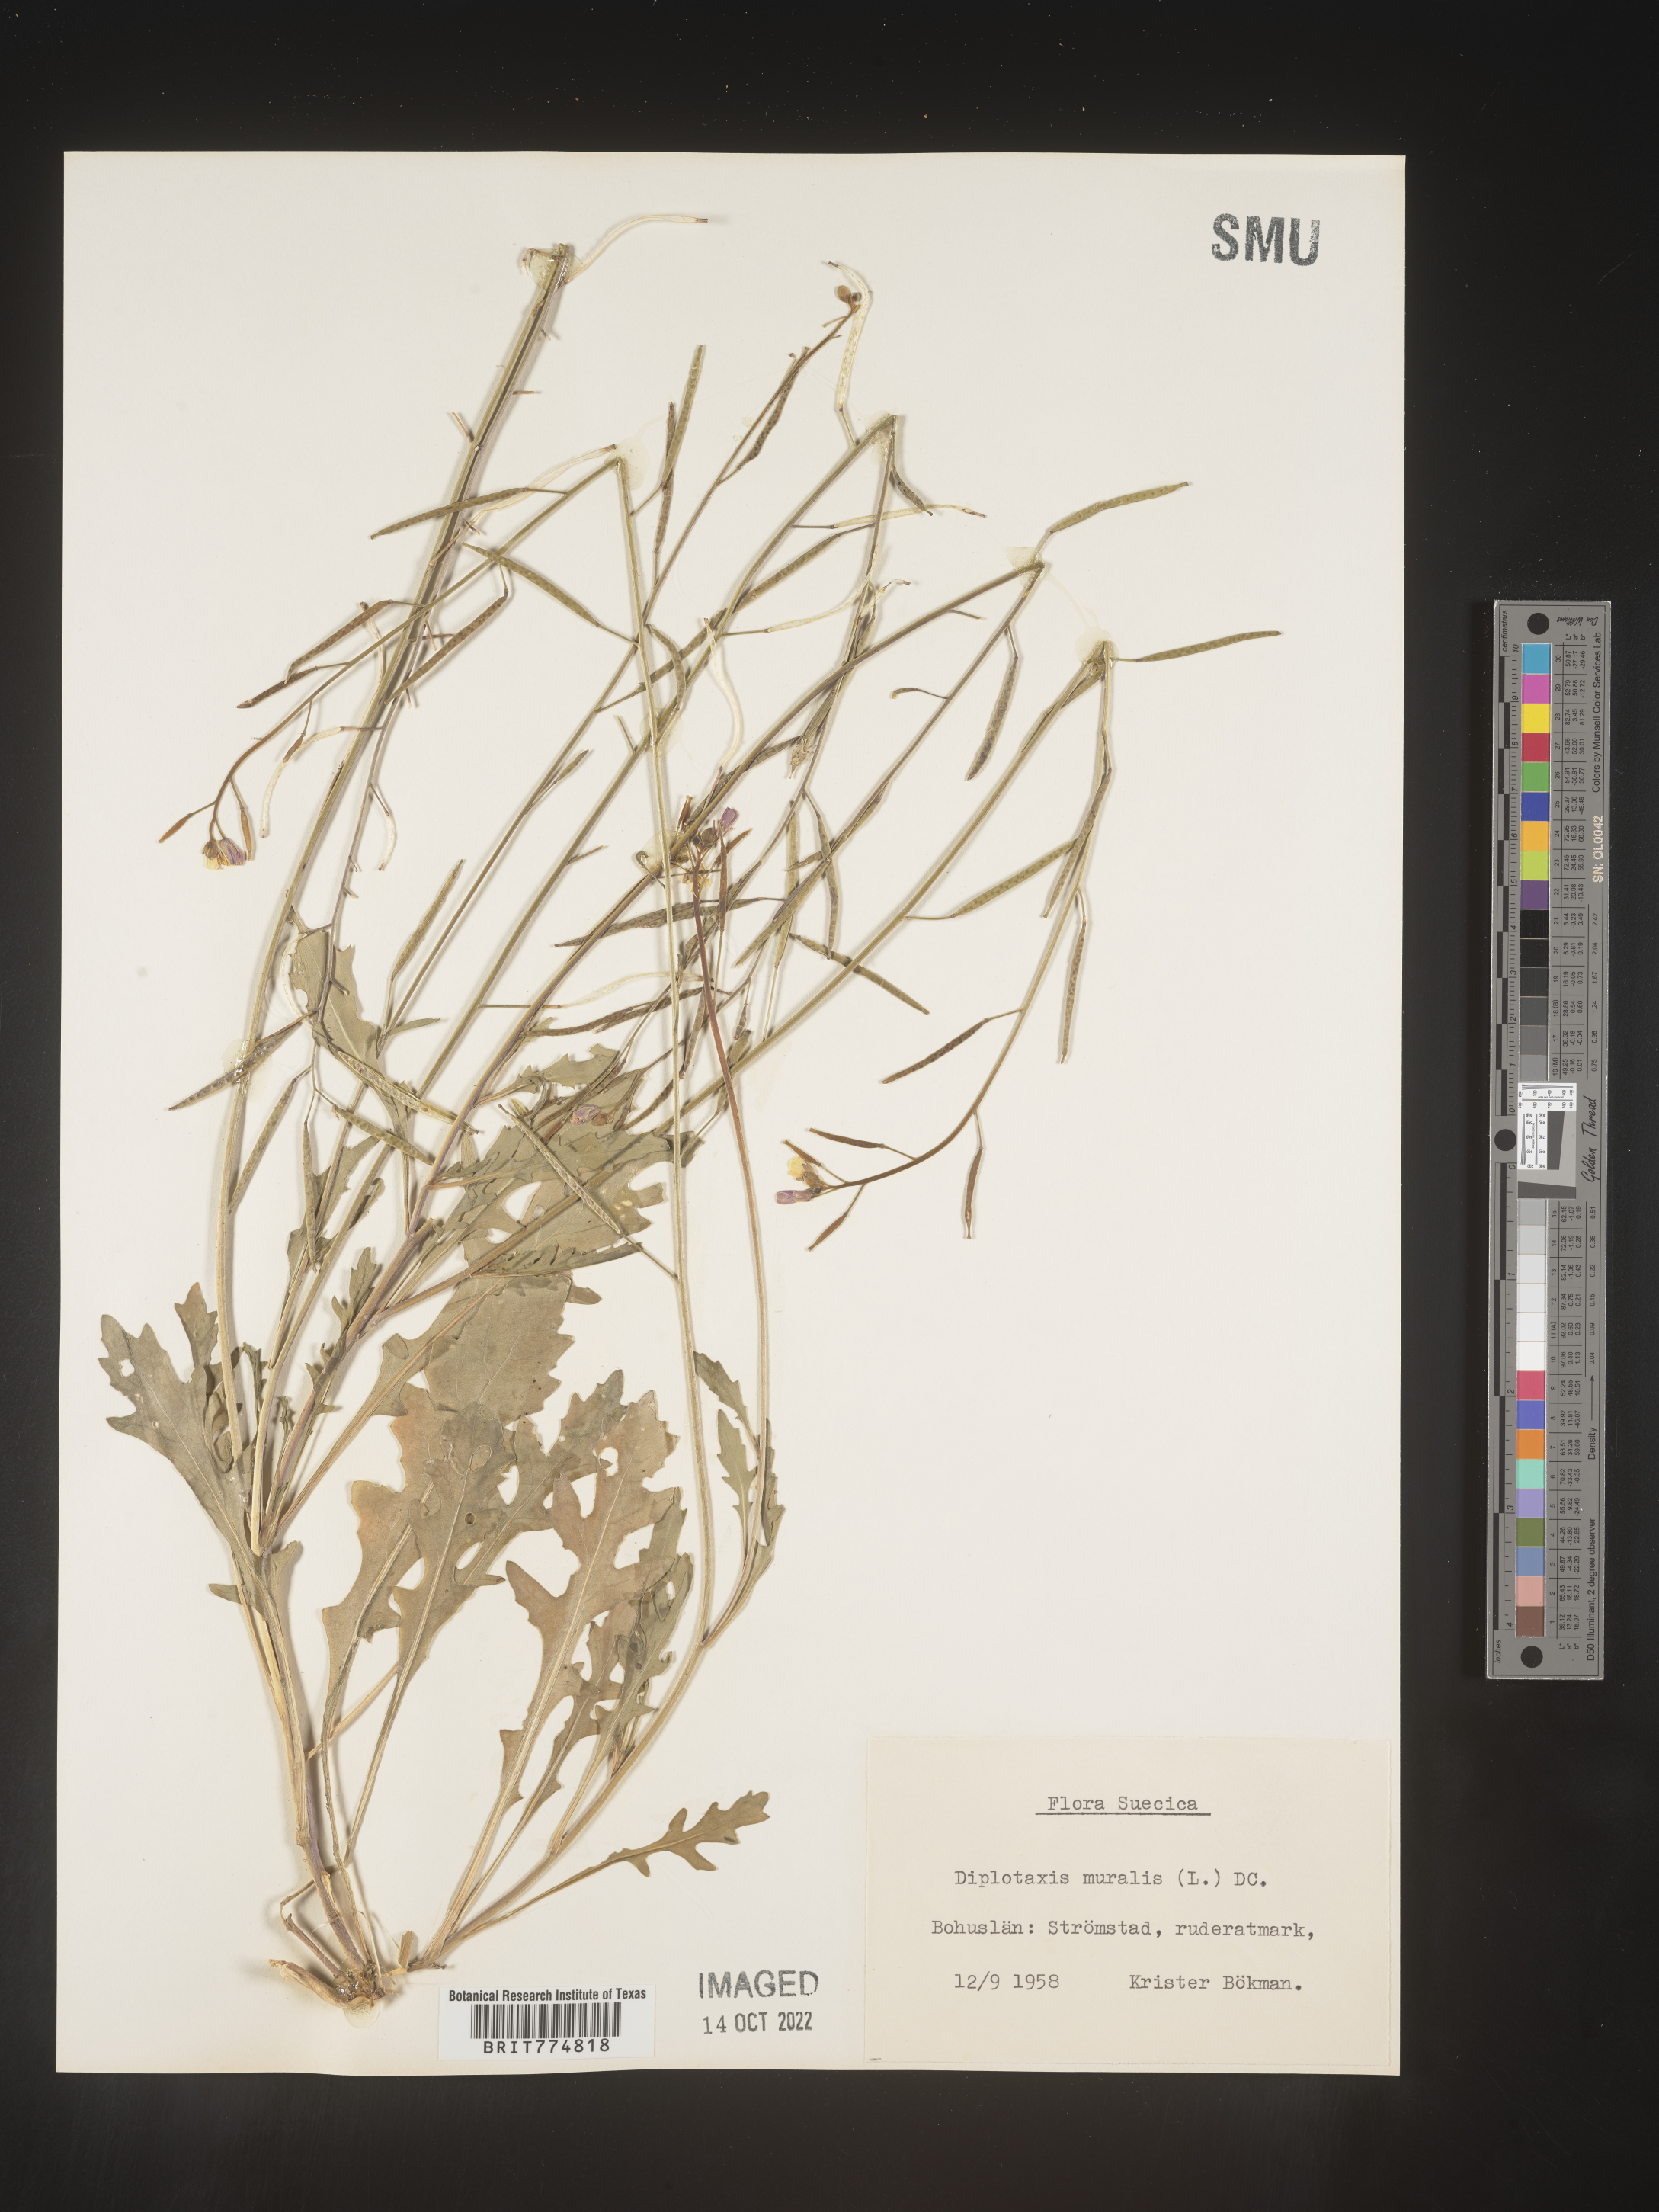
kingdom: Plantae
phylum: Tracheophyta
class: Magnoliopsida
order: Brassicales
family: Brassicaceae
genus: Diplotaxis
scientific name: Diplotaxis
